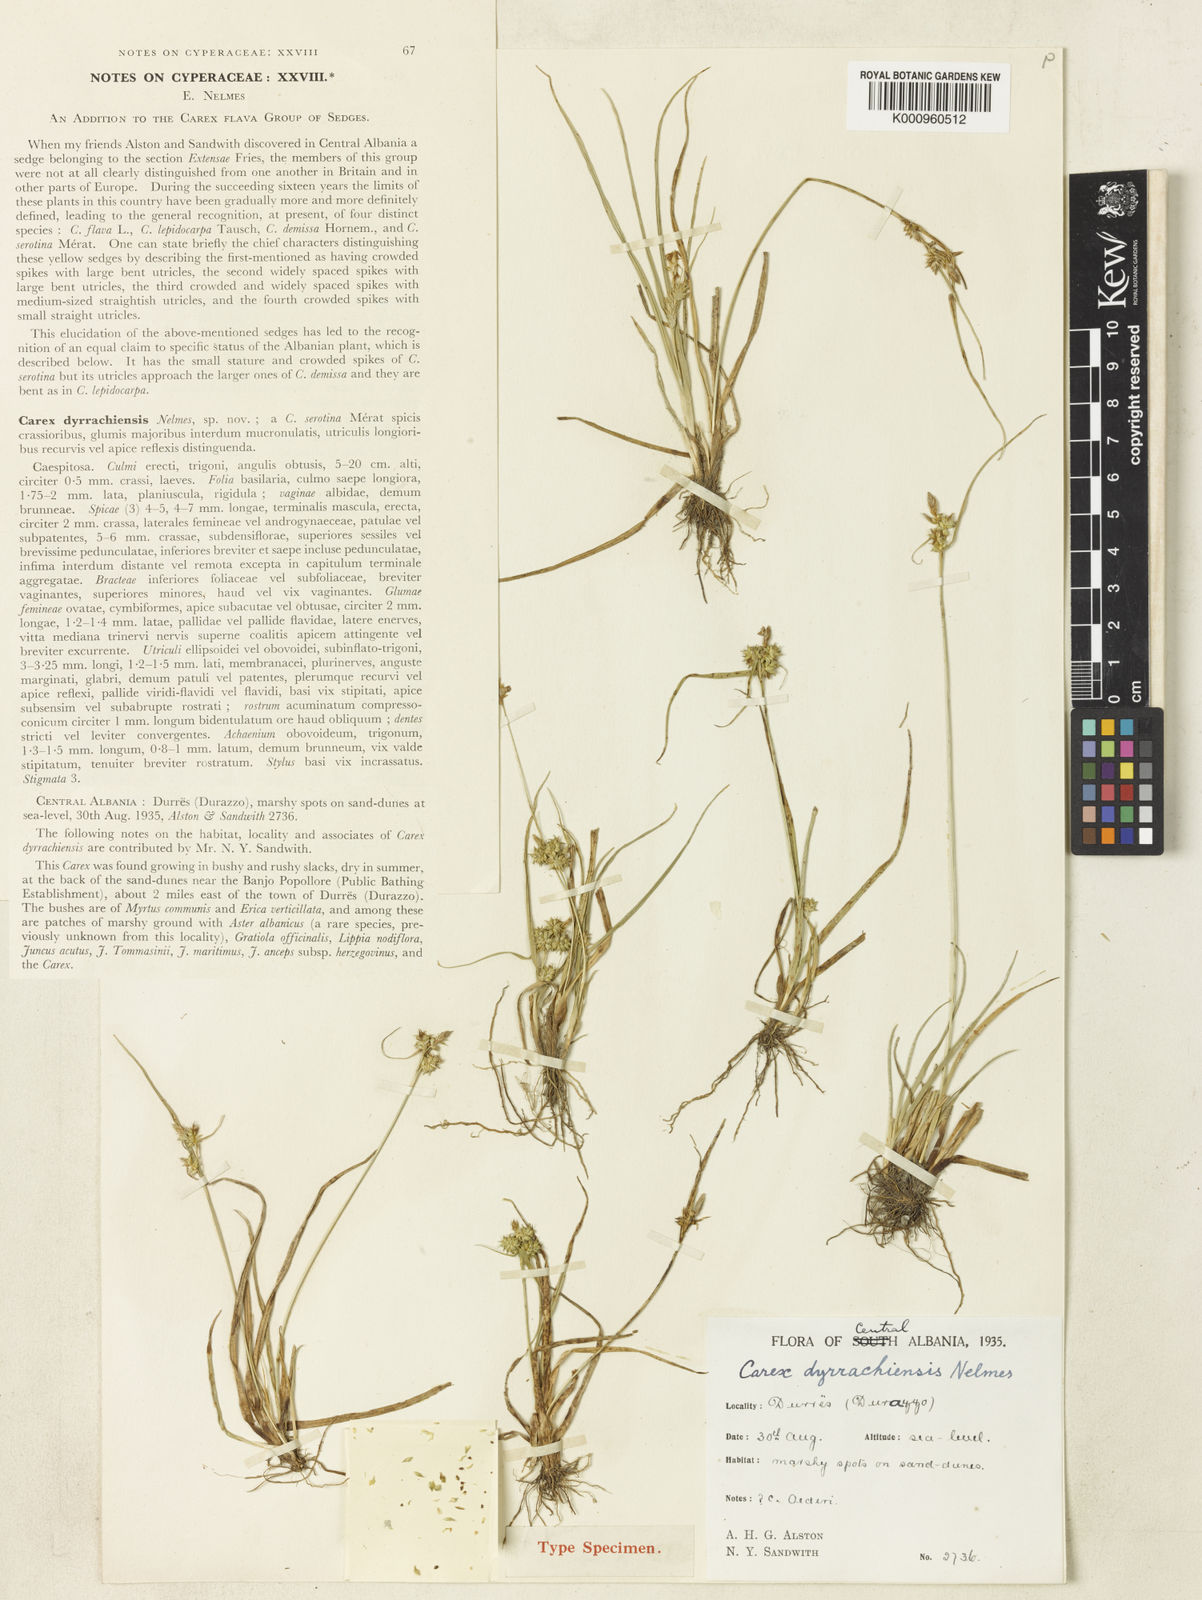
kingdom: Plantae
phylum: Tracheophyta
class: Liliopsida
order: Poales
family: Cyperaceae
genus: Carex
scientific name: Carex oederi
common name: Common & small-fruited yellow-sedge
